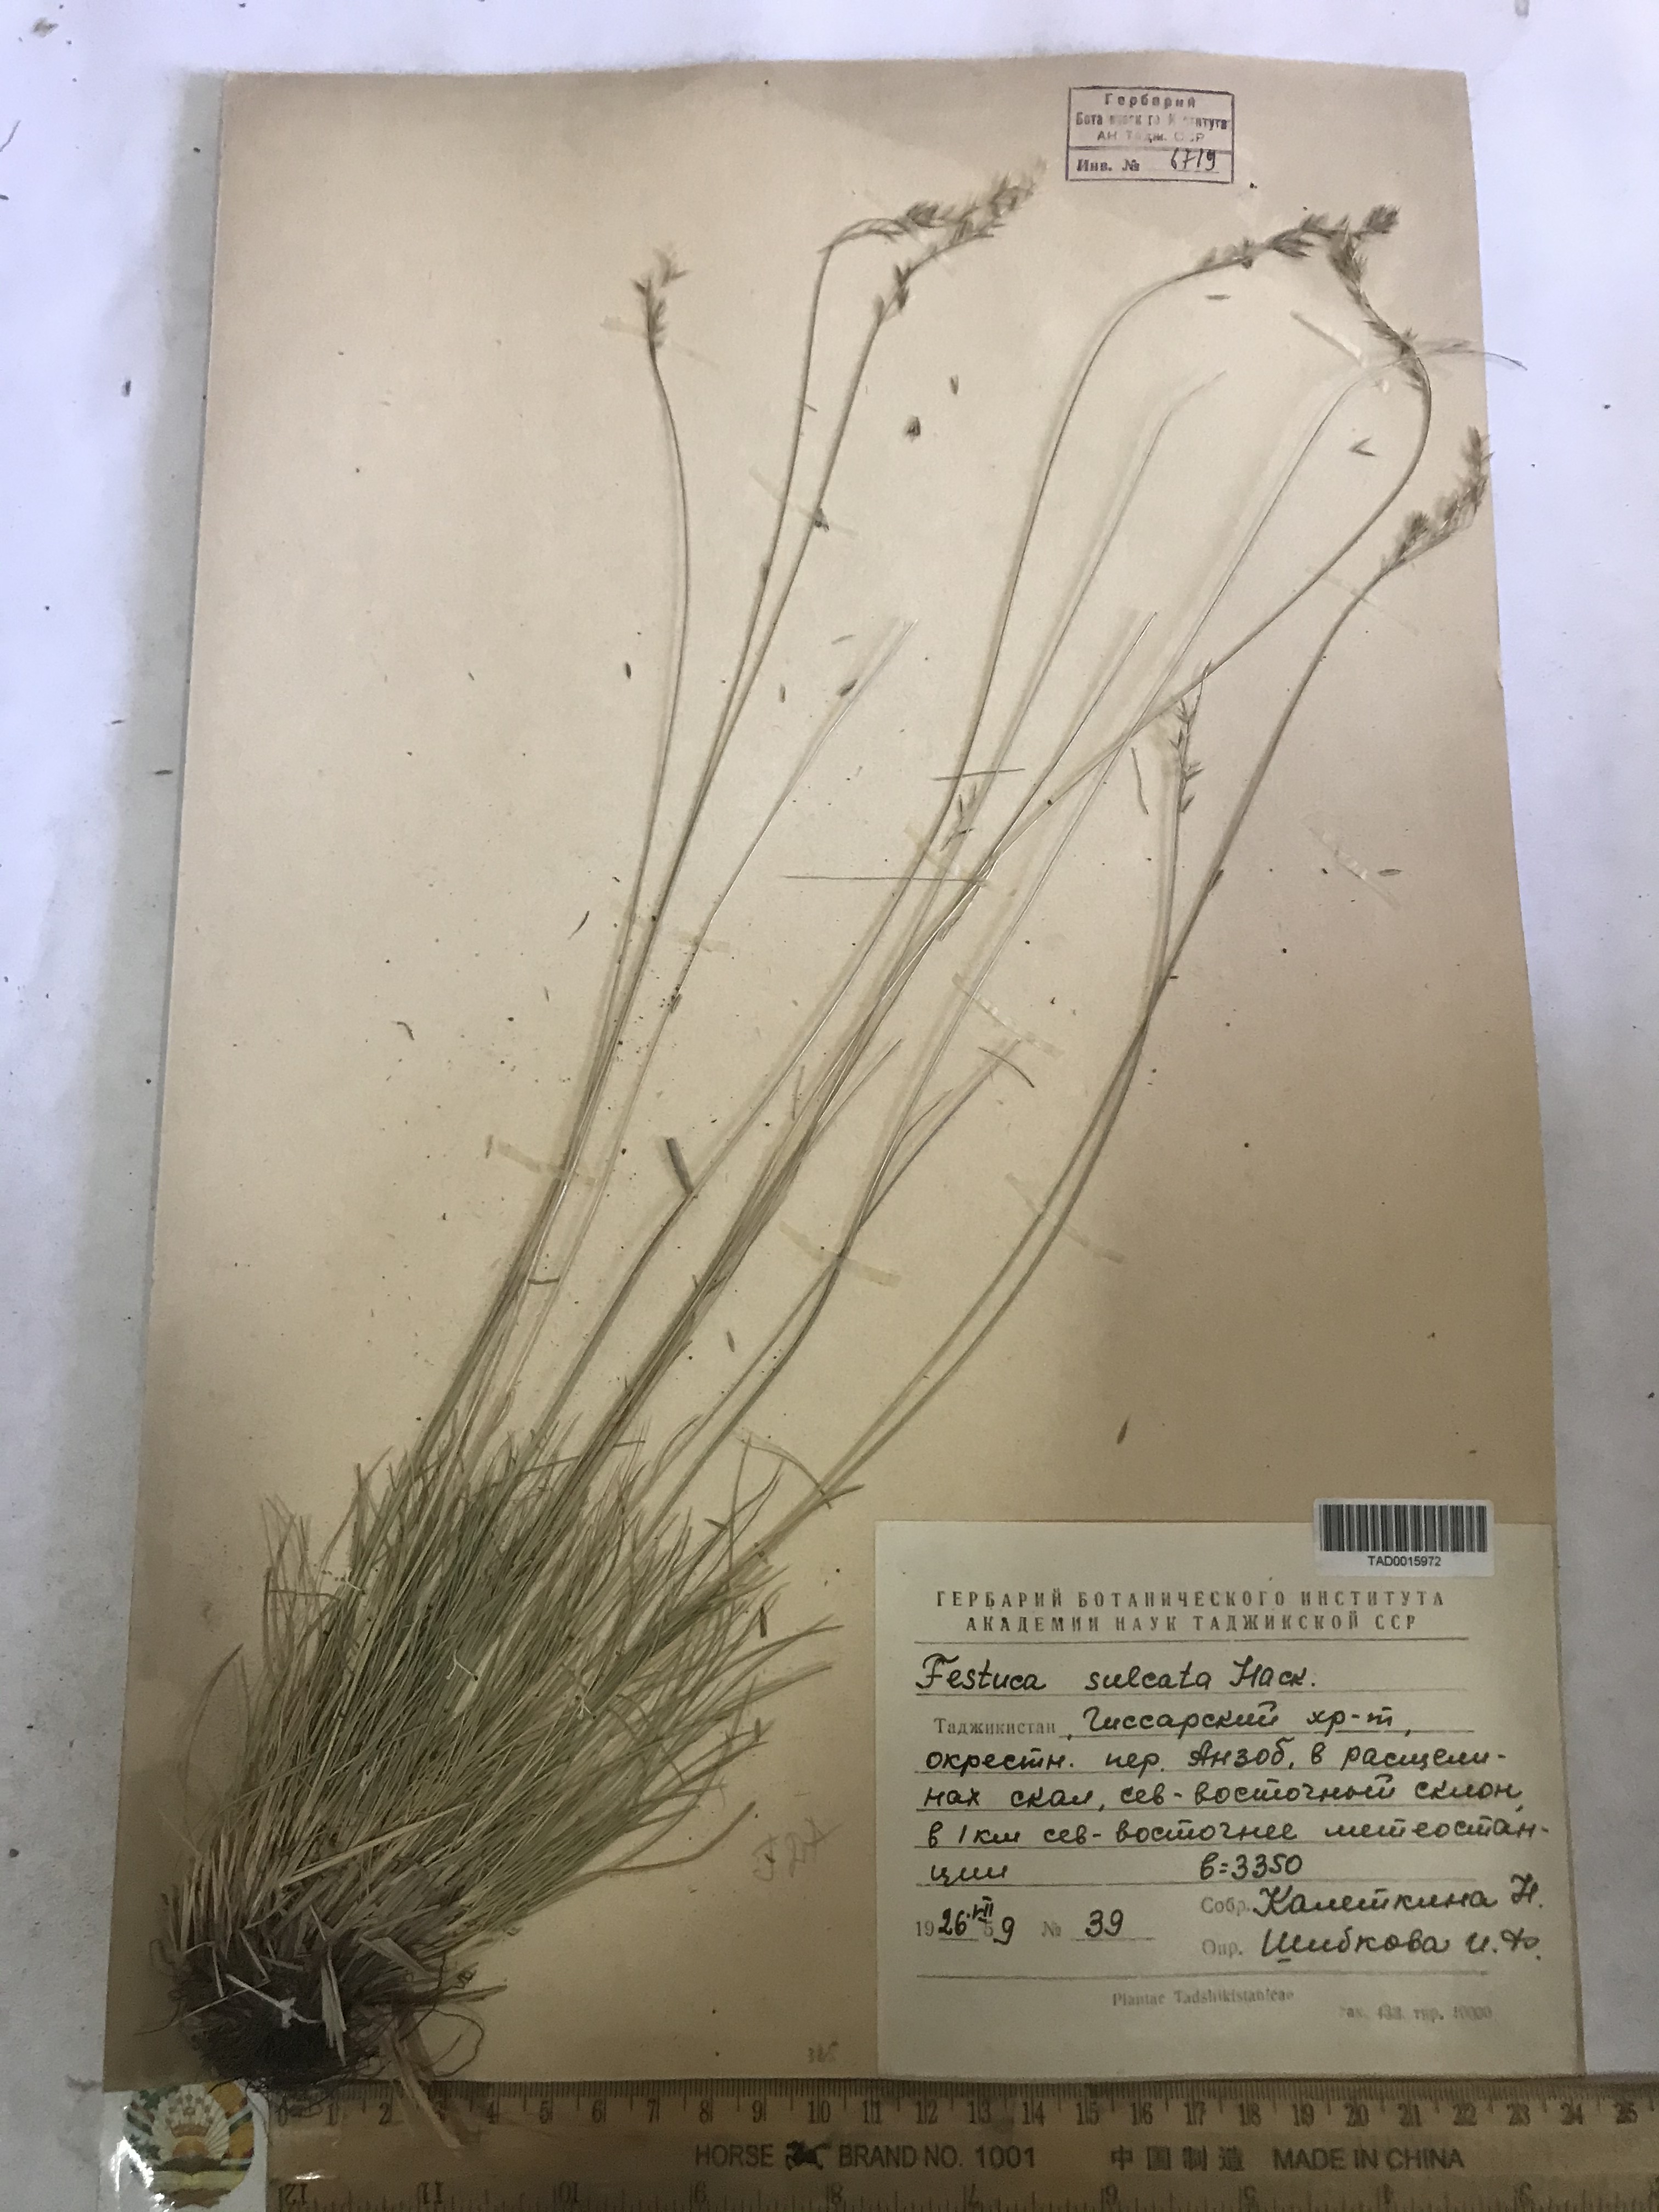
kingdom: Plantae
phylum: Tracheophyta
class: Liliopsida
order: Poales
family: Poaceae
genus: Festuca
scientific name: Festuca sulcata
